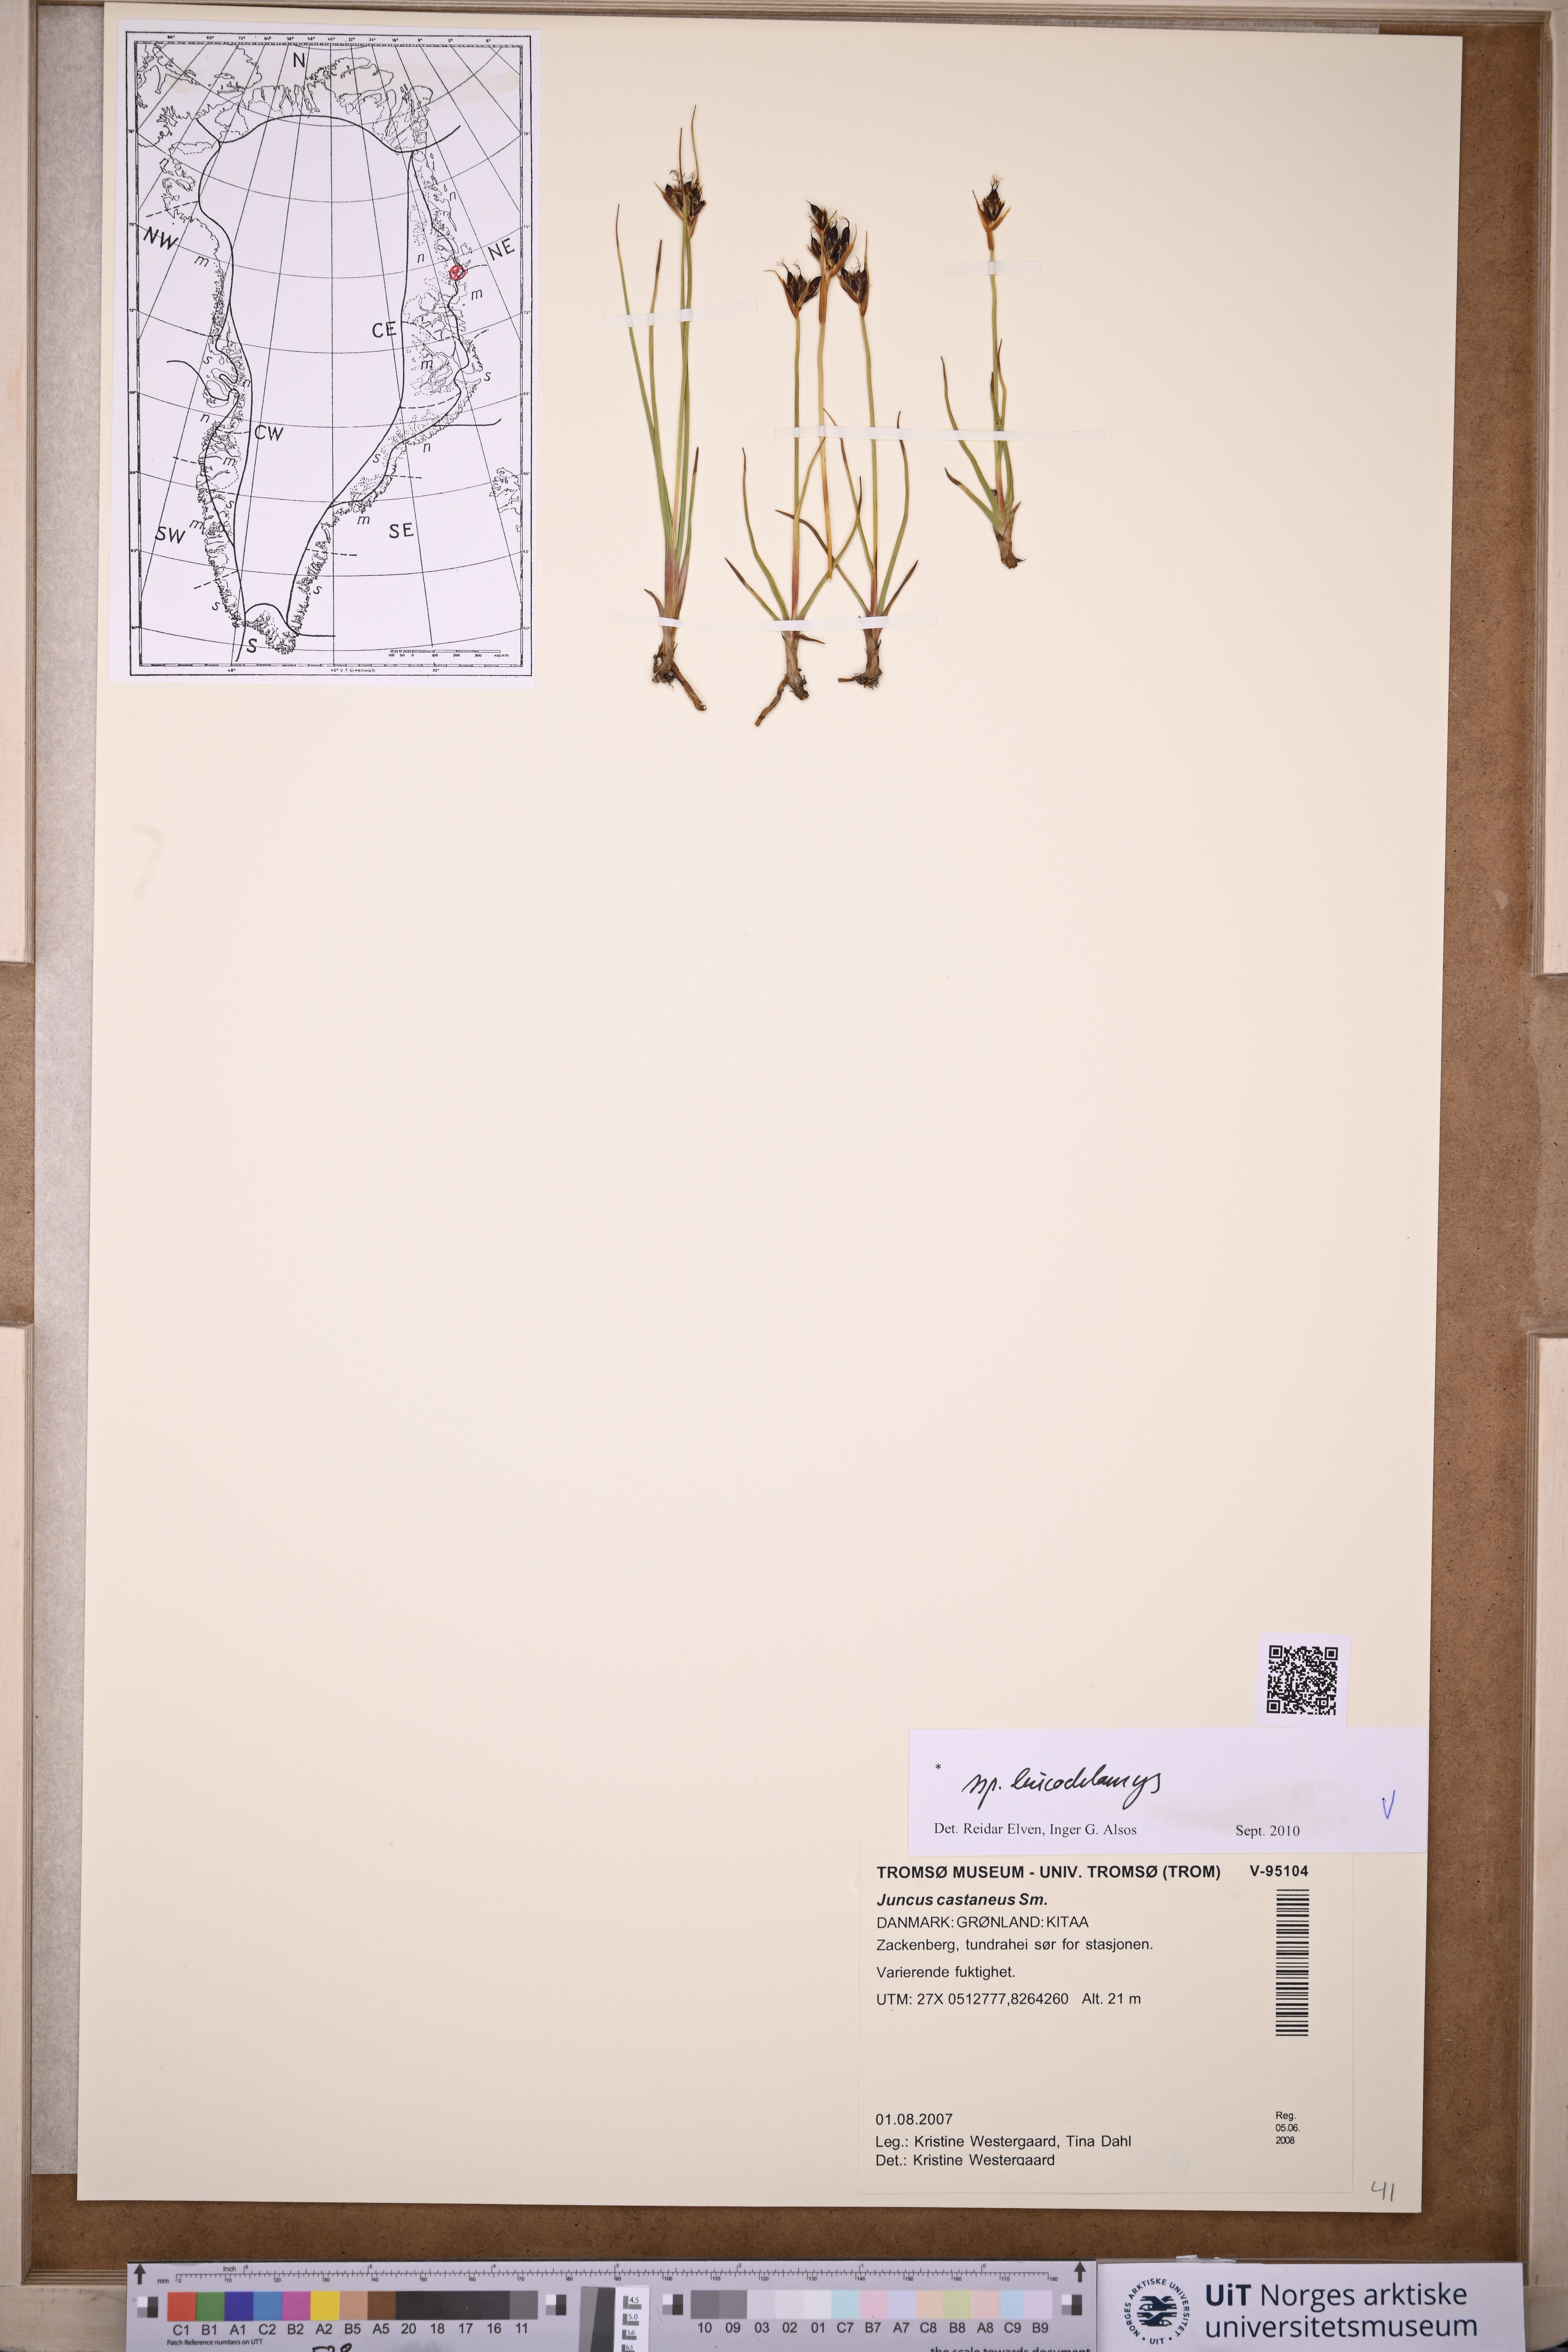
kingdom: Plantae
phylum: Tracheophyta
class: Liliopsida
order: Poales
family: Juncaceae
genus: Juncus
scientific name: Juncus castaneus
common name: Chestnut rush
